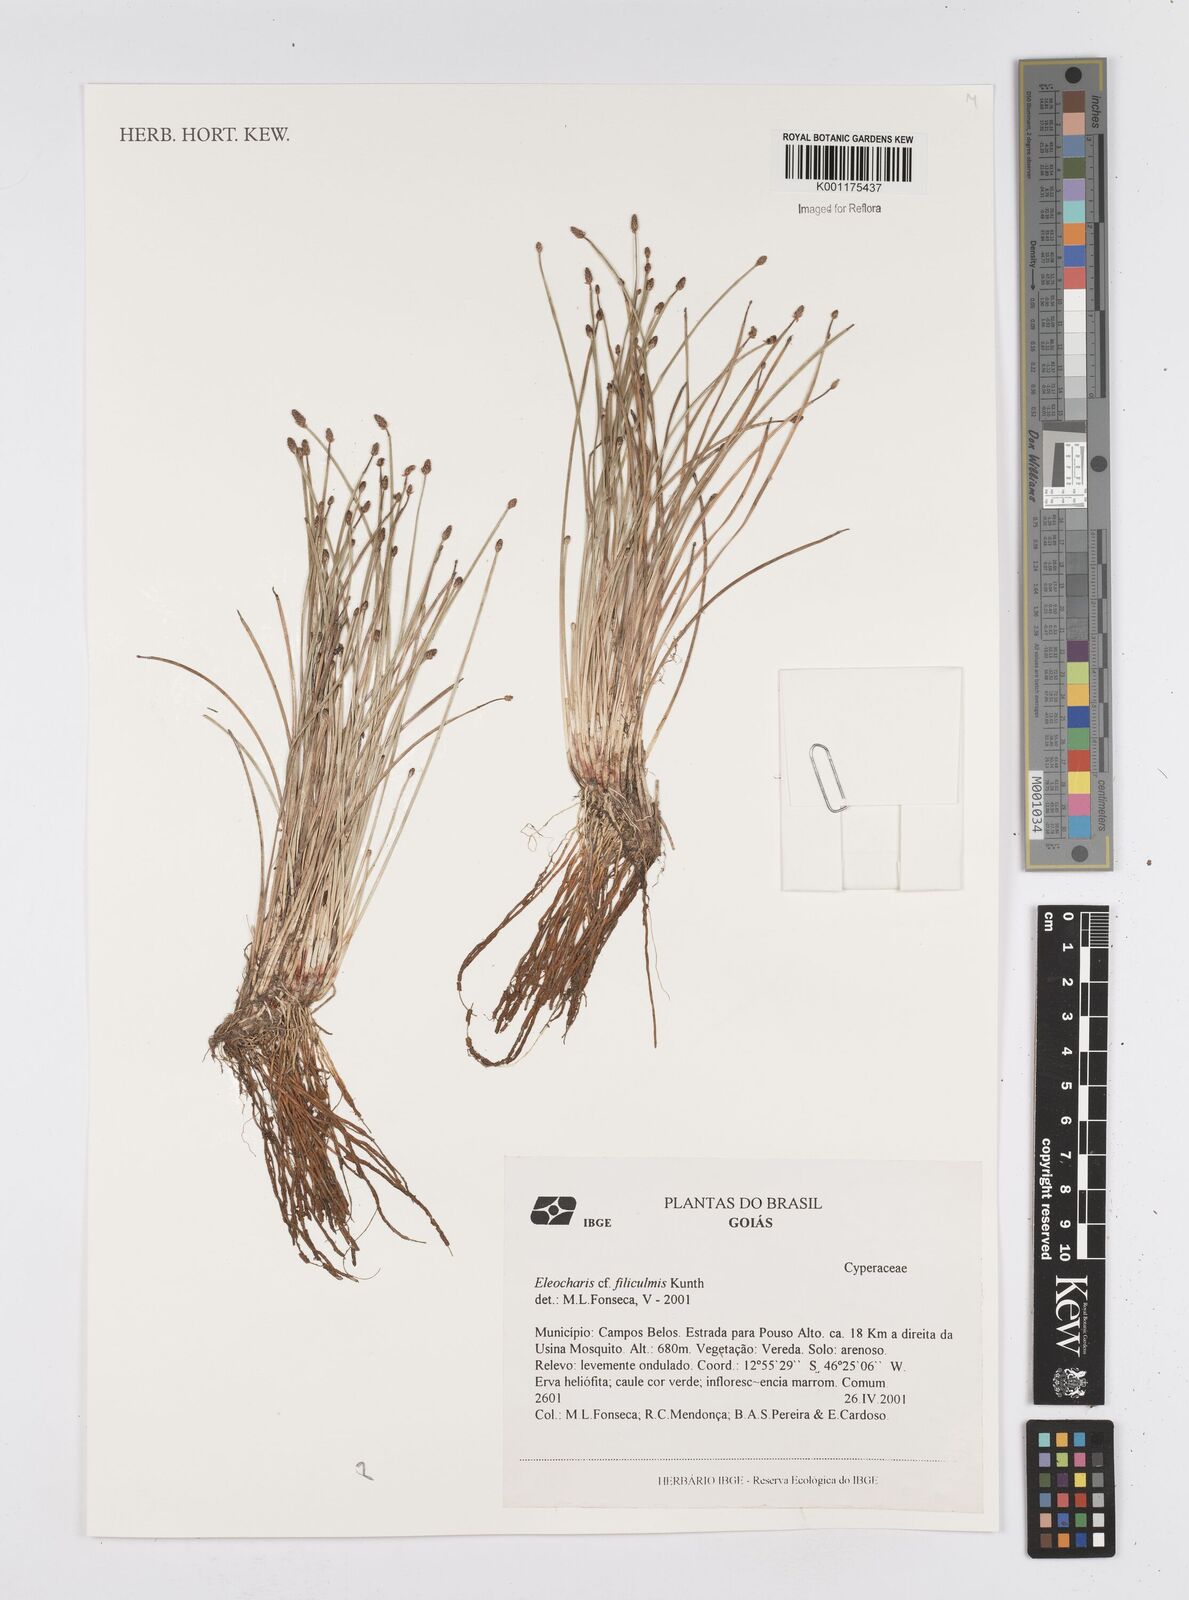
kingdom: Plantae
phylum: Tracheophyta
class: Liliopsida
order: Poales
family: Cyperaceae
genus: Eleocharis
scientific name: Eleocharis filiculmis
